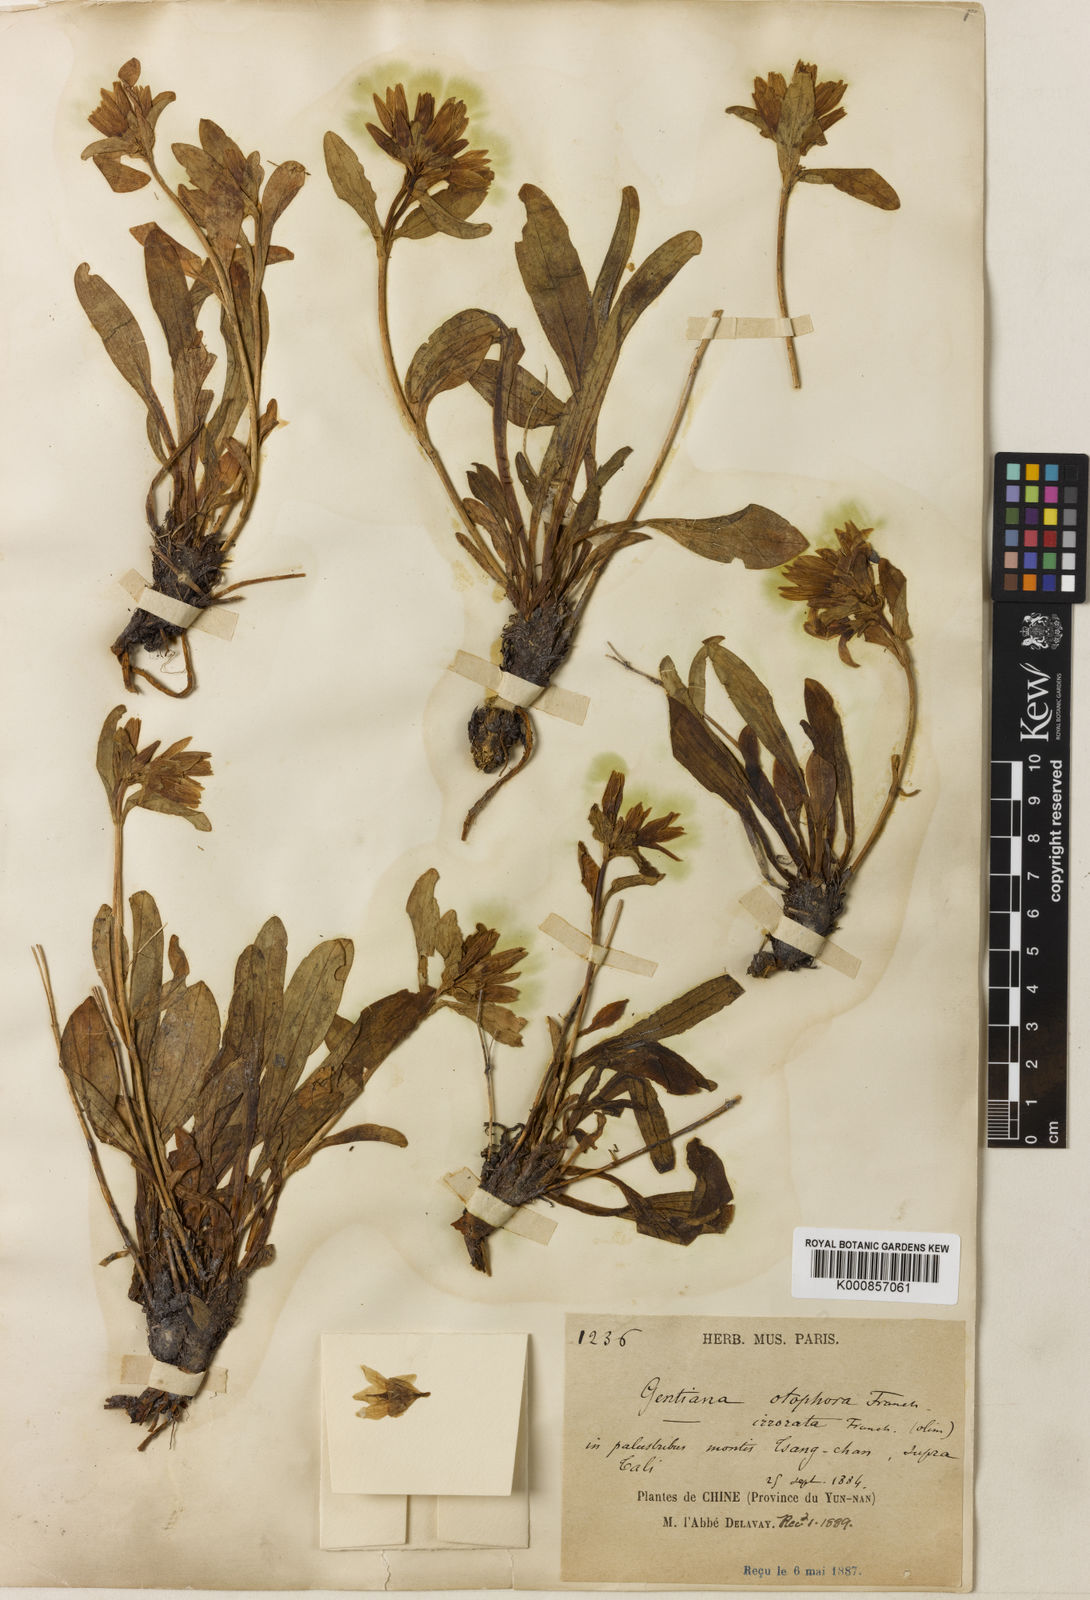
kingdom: Plantae
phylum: Tracheophyta
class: Magnoliopsida
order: Gentianales
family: Gentianaceae
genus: Kuepferia
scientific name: Kuepferia otophora
